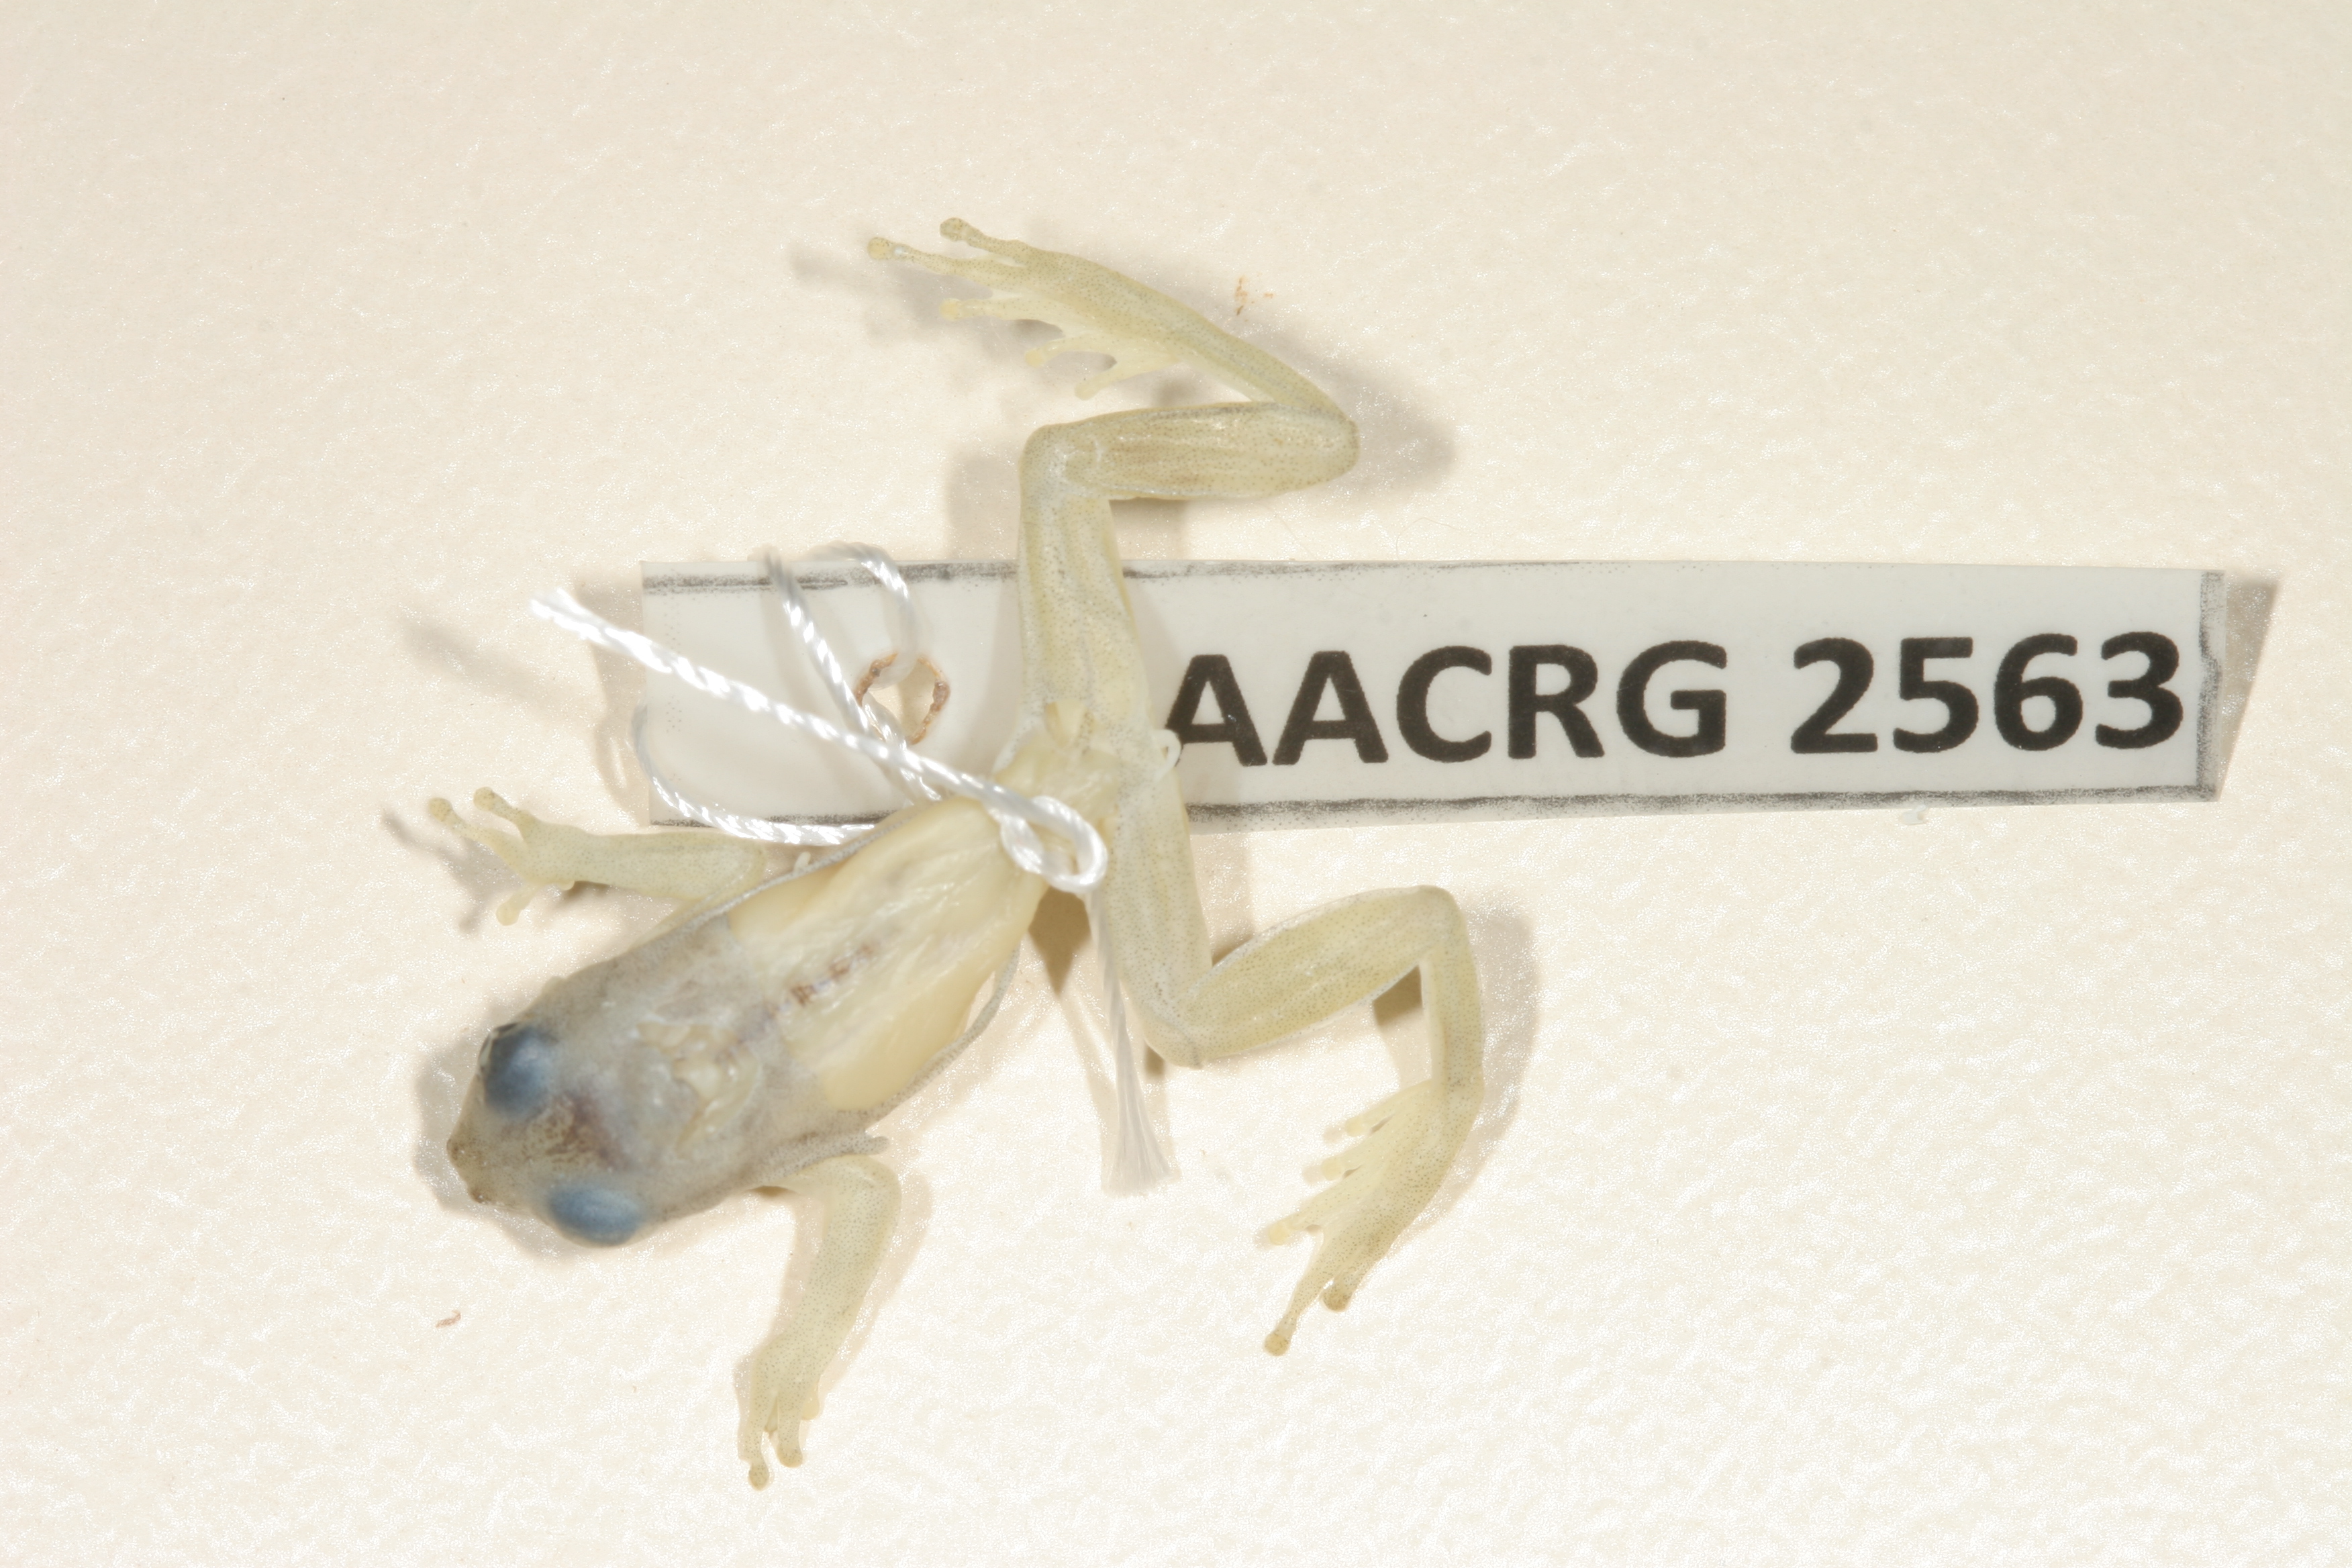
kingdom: Animalia
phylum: Chordata
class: Amphibia
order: Anura
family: Hyperoliidae
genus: Afrixalus
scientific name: Afrixalus aureus
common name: Golden banana frog
